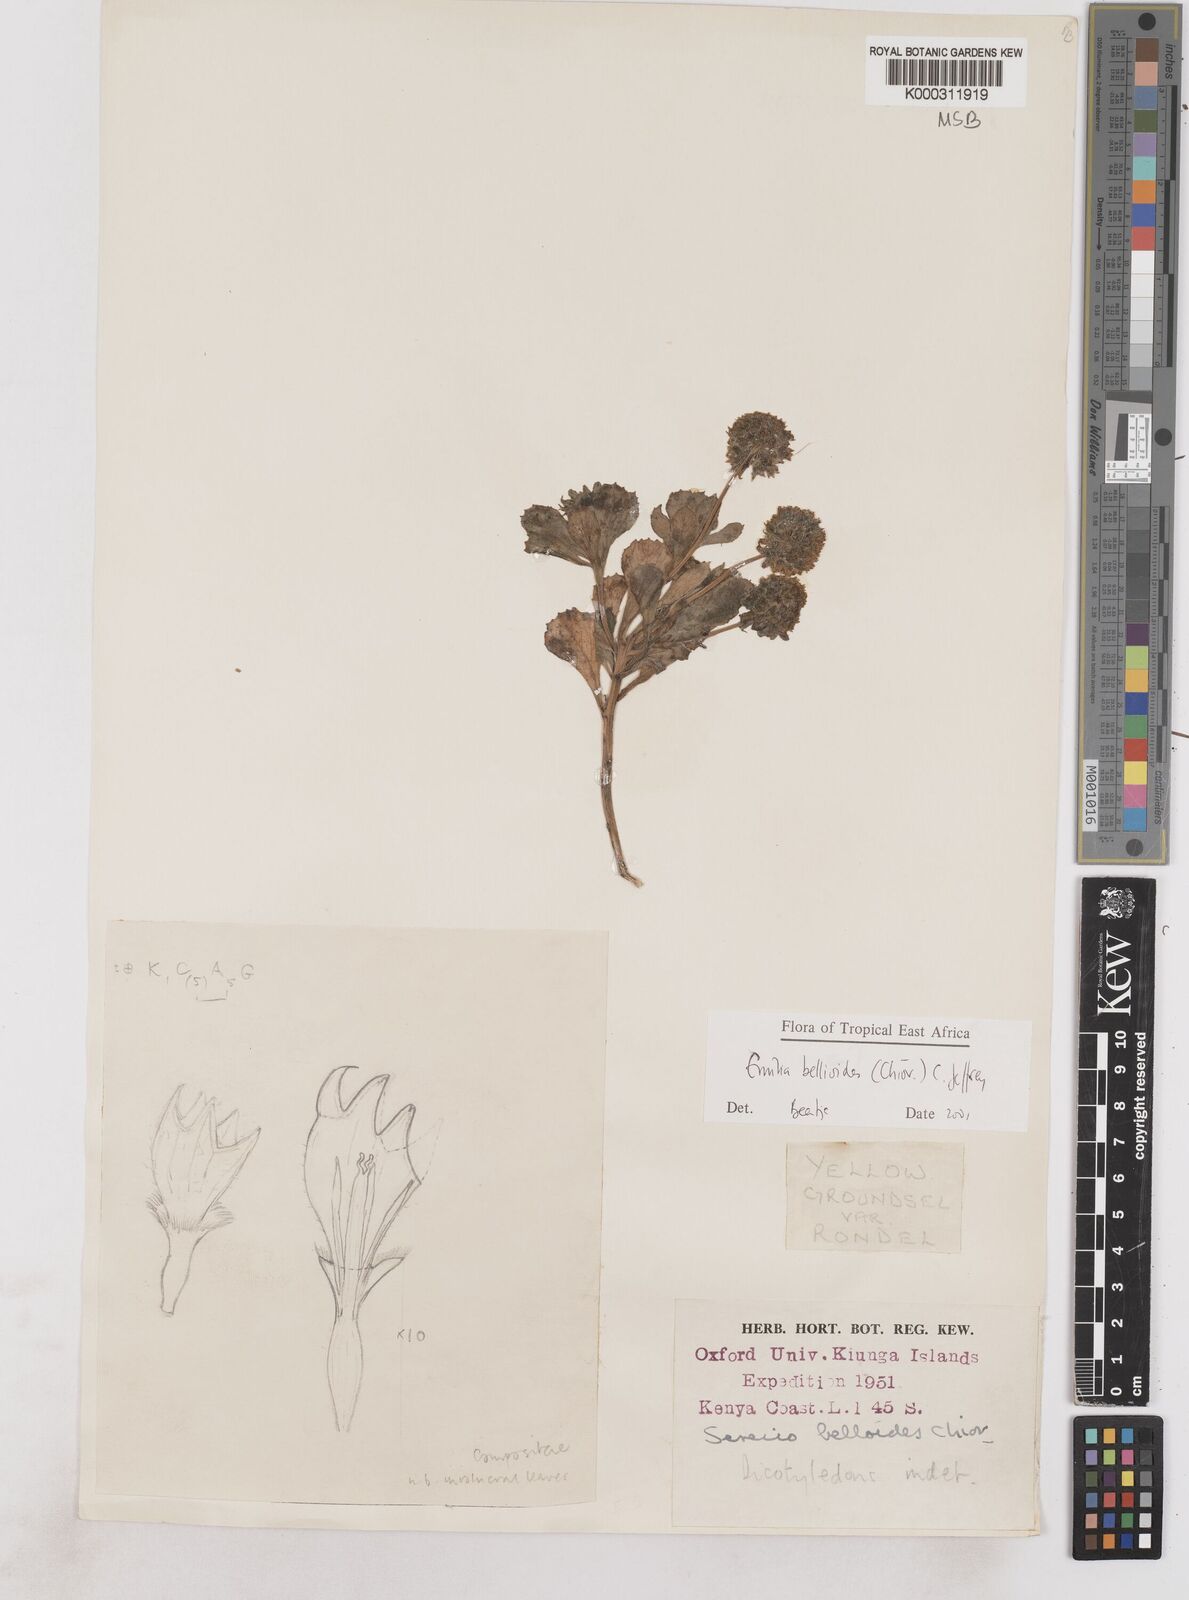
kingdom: Plantae
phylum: Tracheophyta
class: Magnoliopsida
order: Asterales
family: Asteraceae
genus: Emilia
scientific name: Emilia bellioides
